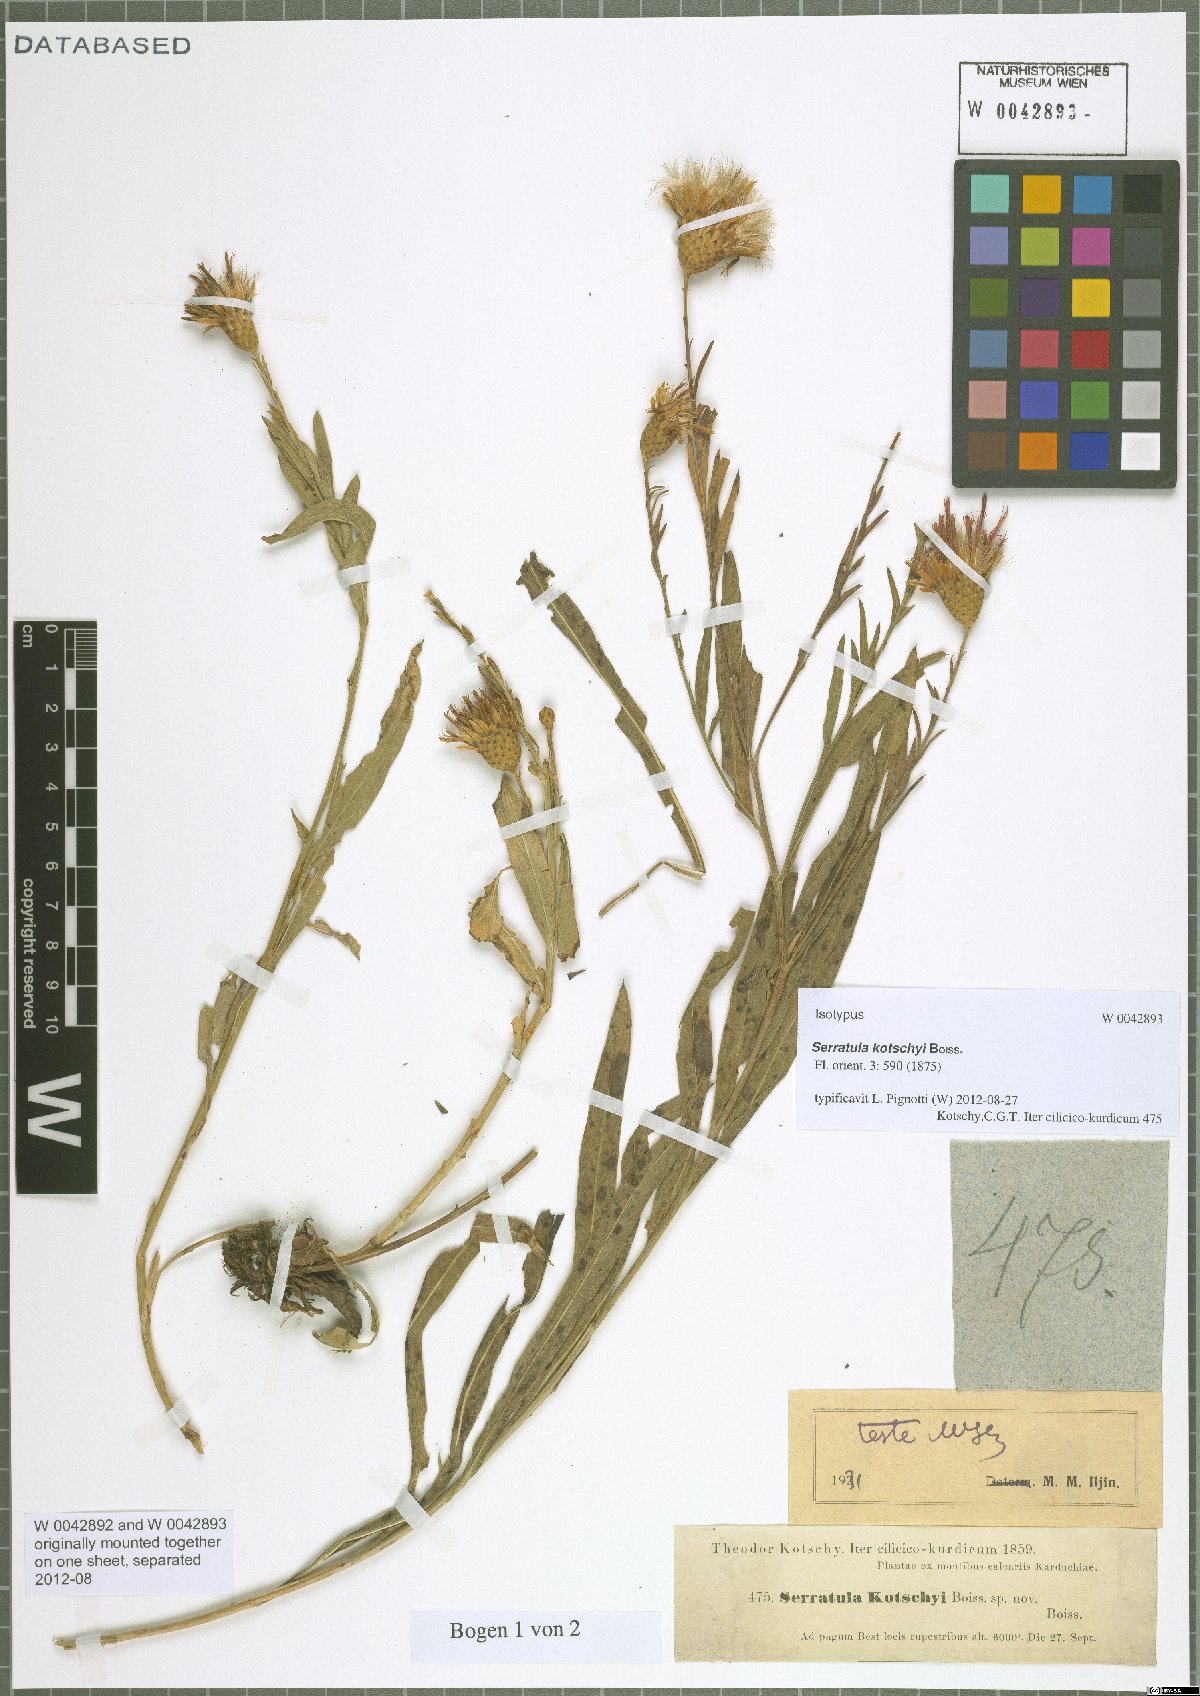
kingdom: Plantae
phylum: Tracheophyta
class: Magnoliopsida
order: Asterales
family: Asteraceae
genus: Klasea
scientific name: Klasea kotschyi
